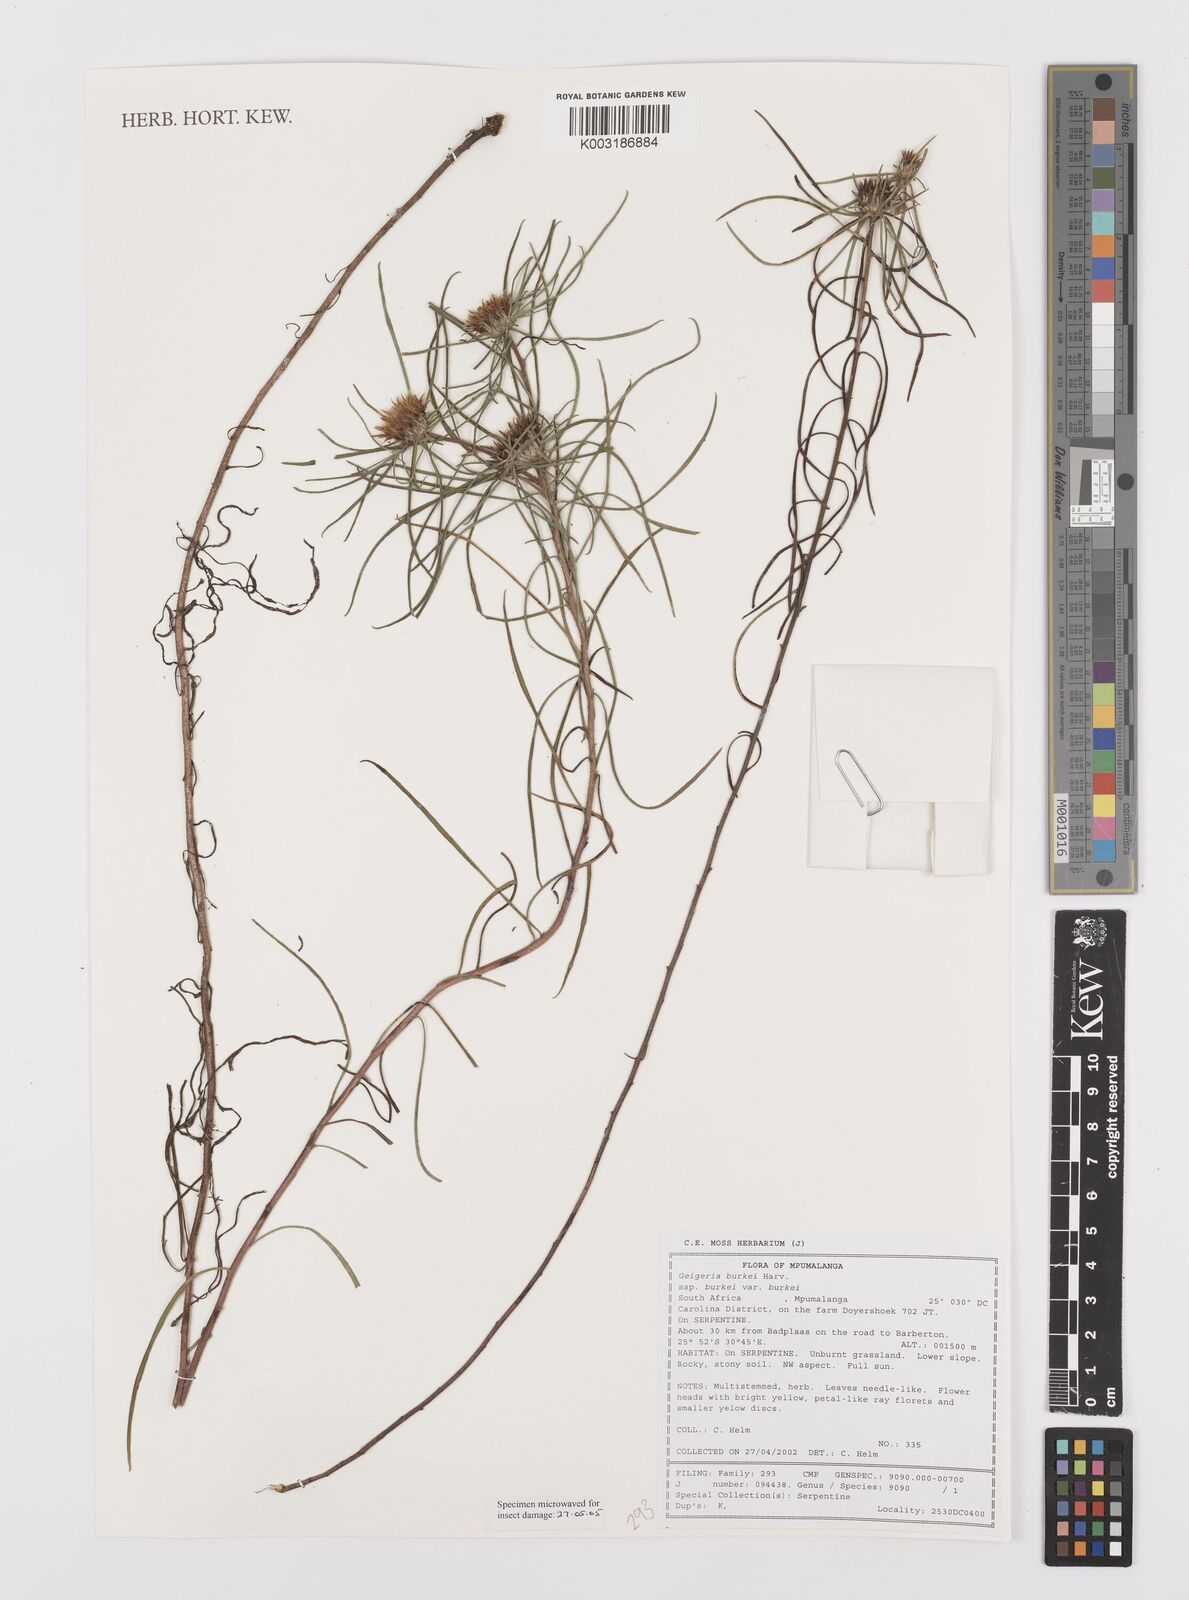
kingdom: Plantae
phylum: Tracheophyta
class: Magnoliopsida
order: Asterales
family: Asteraceae
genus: Geigeria
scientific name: Geigeria burkei
